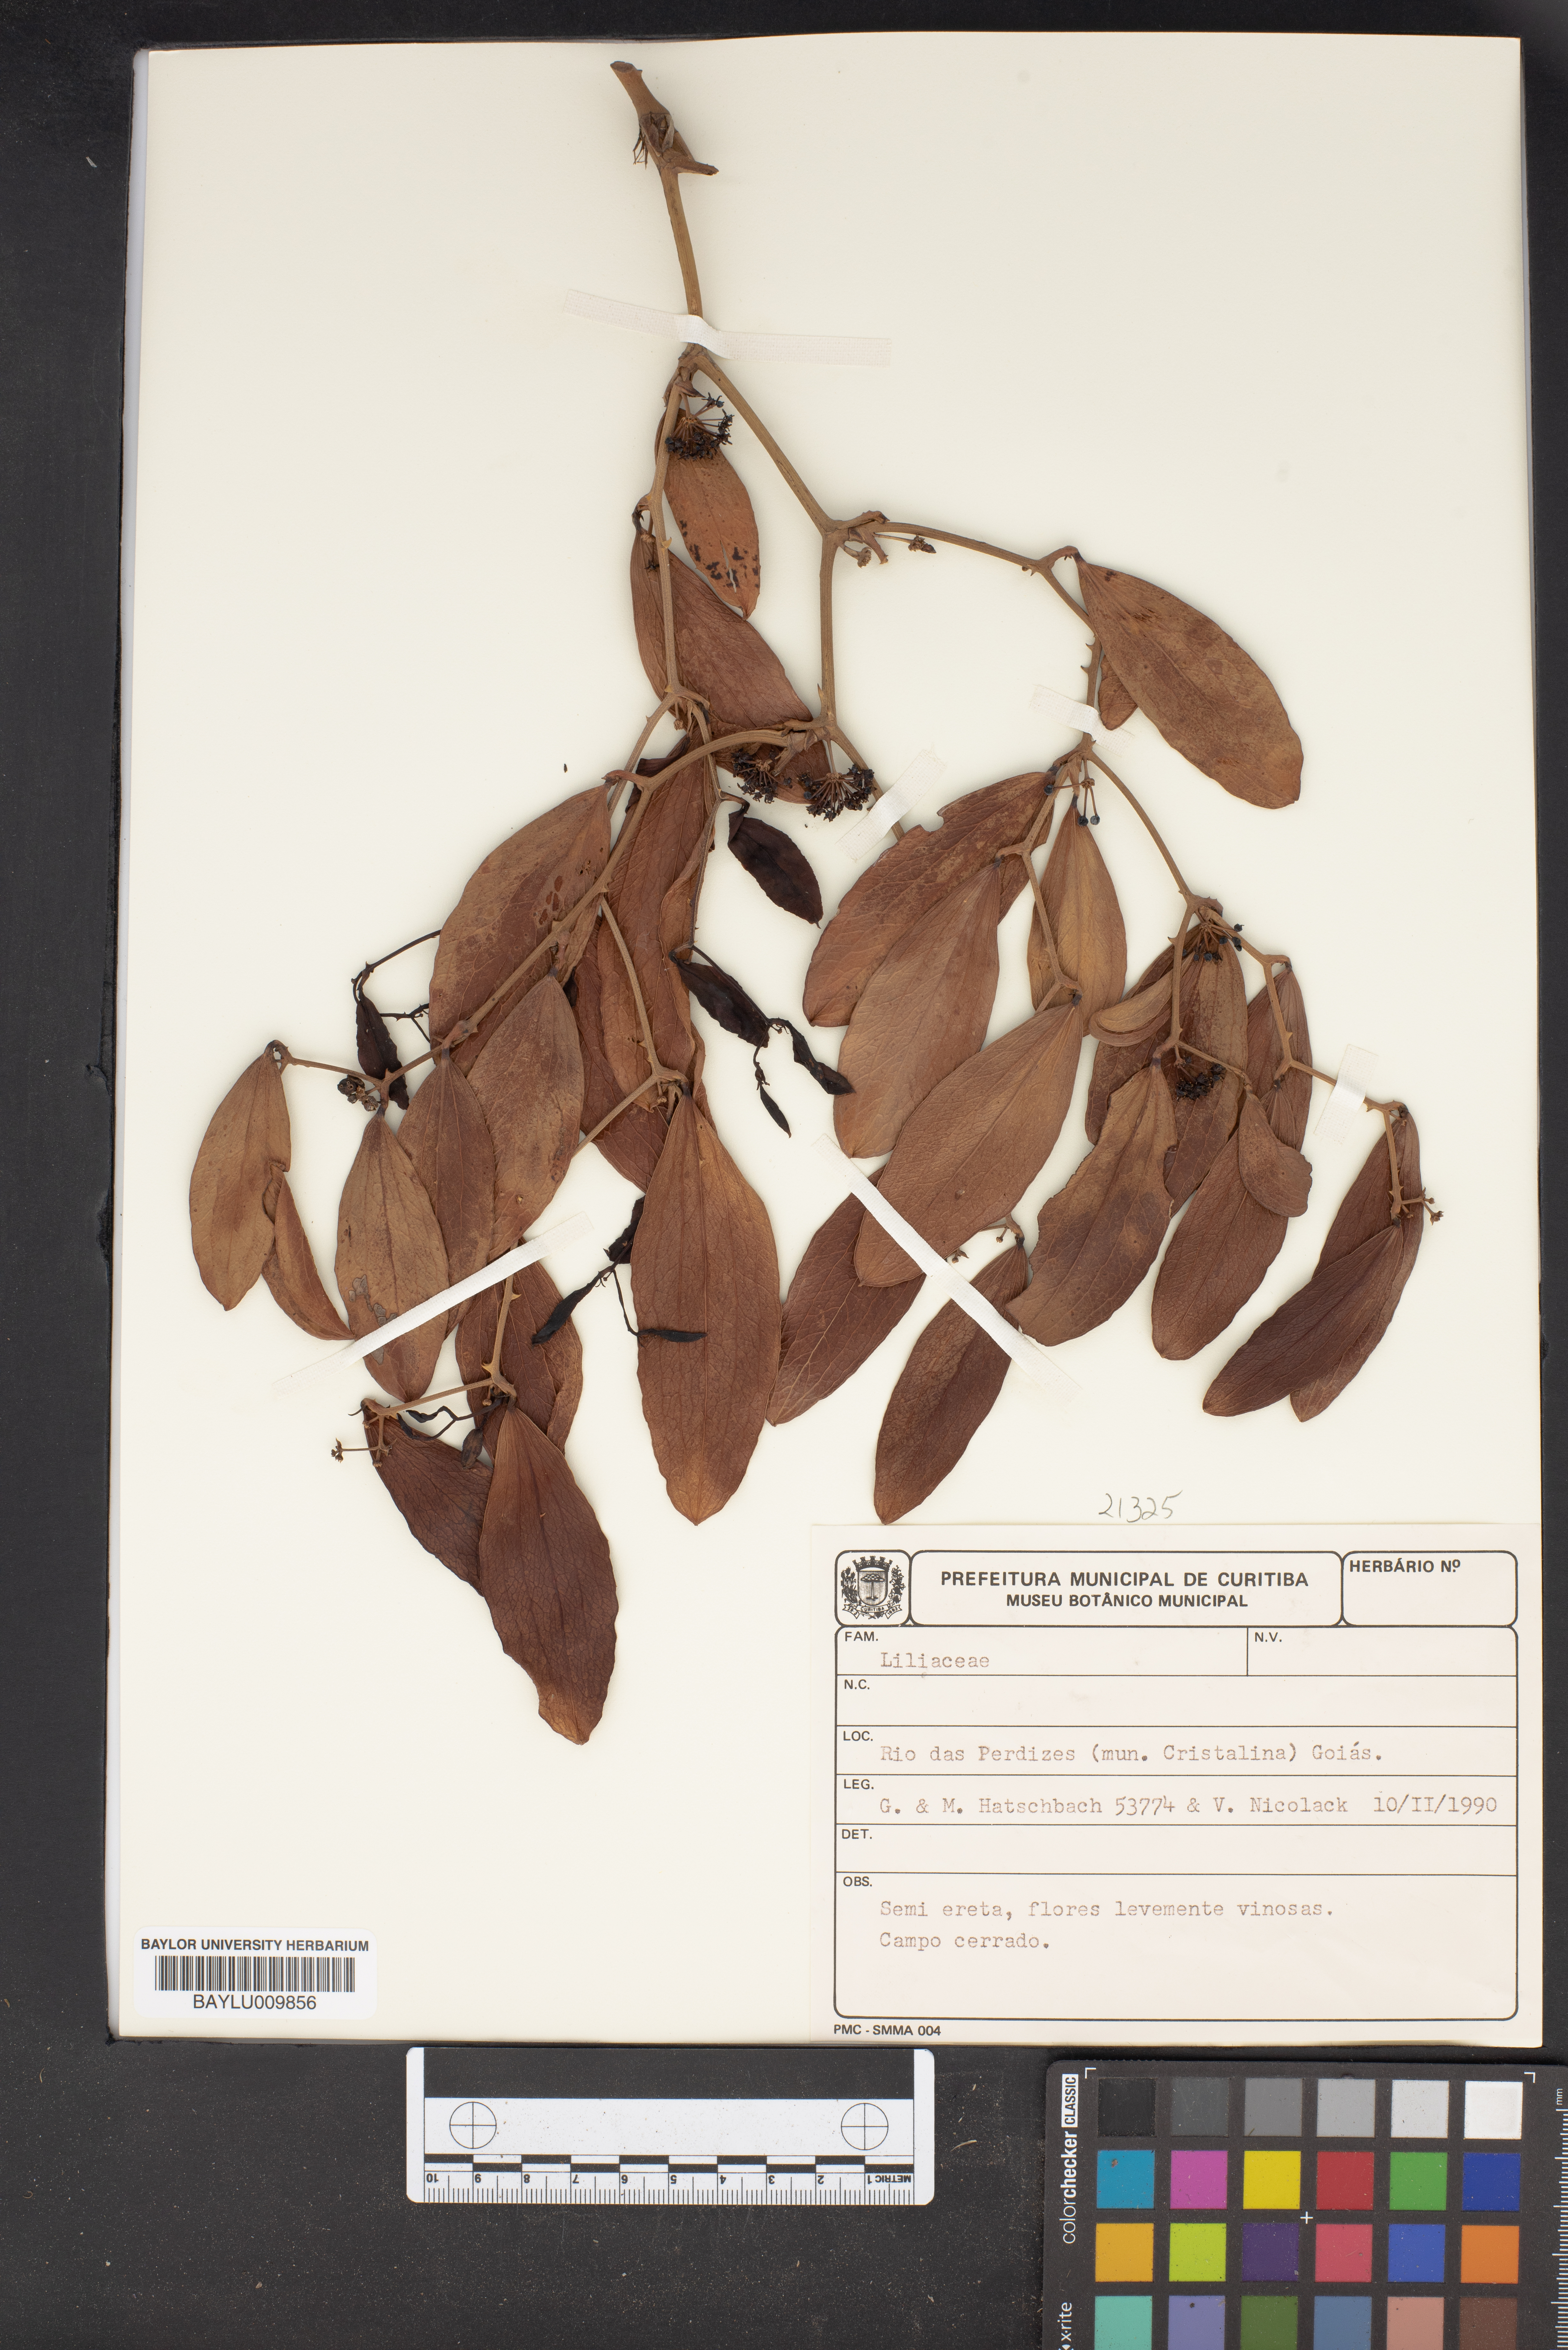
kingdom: Plantae
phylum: Tracheophyta
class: Liliopsida
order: Liliales
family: Liliaceae
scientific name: Liliaceae
